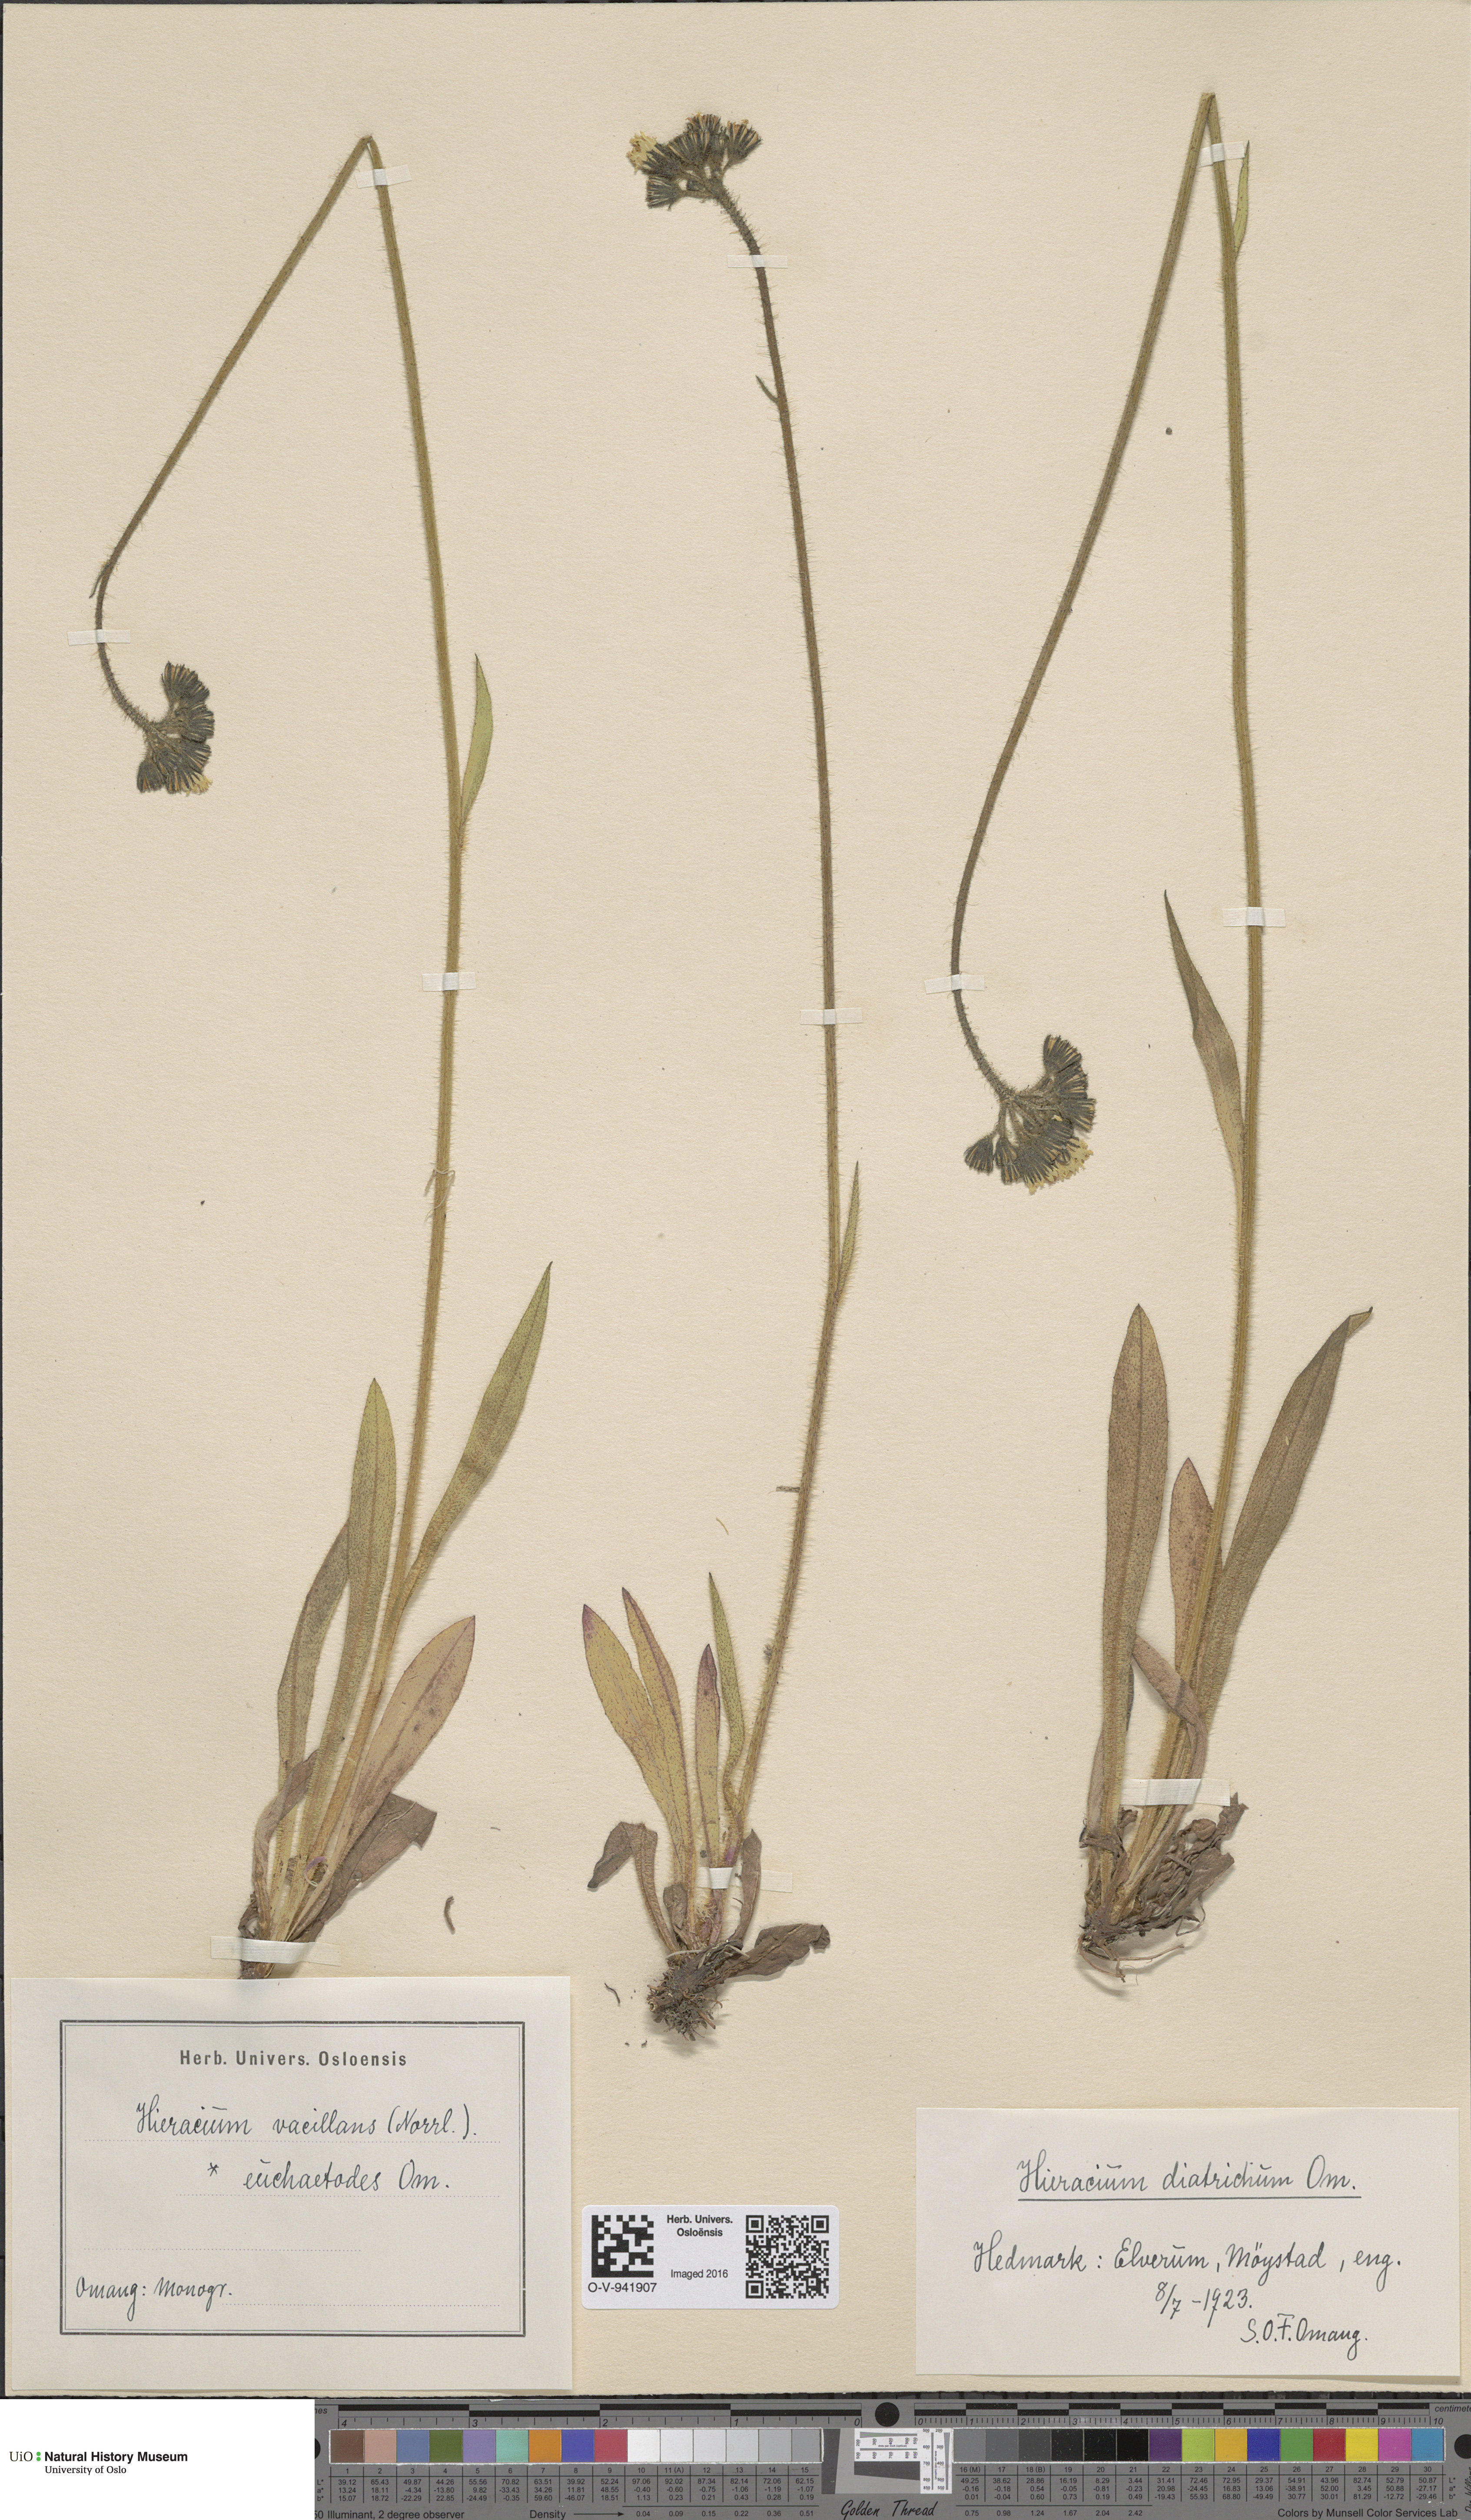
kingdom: Plantae
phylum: Tracheophyta
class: Magnoliopsida
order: Asterales
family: Asteraceae
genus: Pilosella
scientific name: Pilosella glomerata
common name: Queen devil hawkweed
